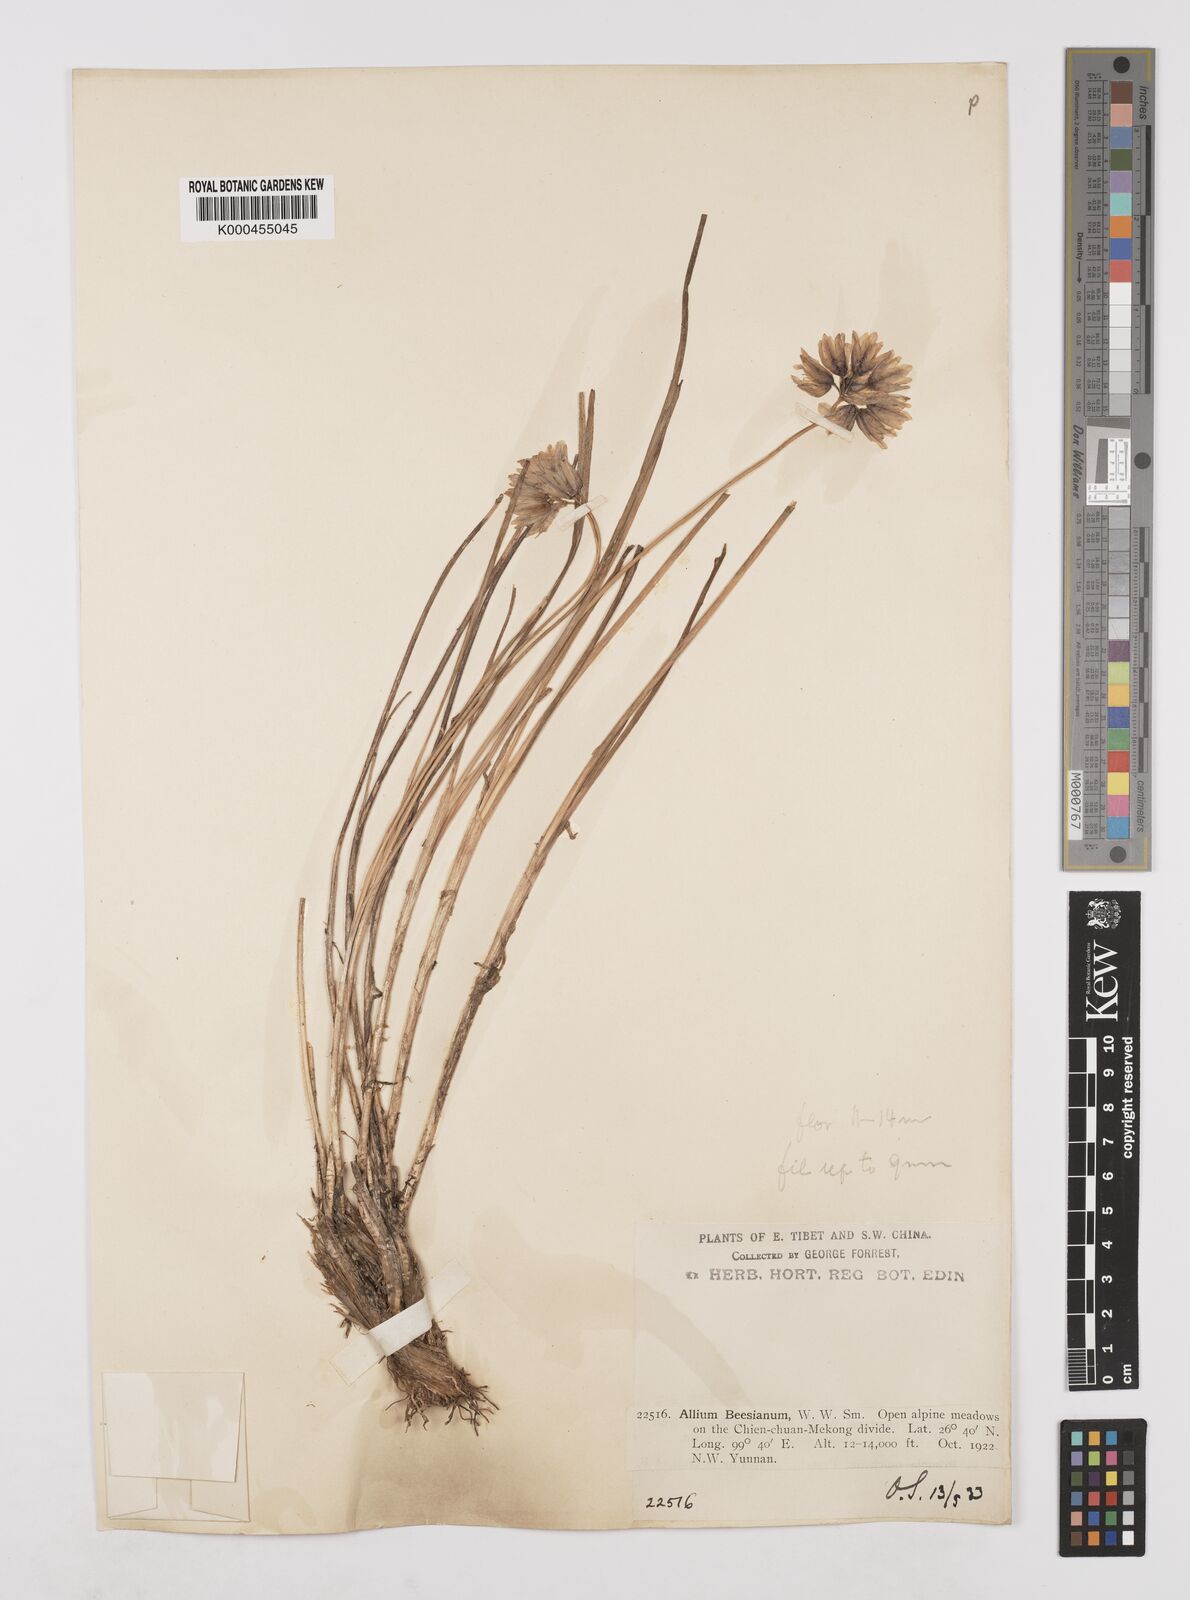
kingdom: Plantae
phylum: Tracheophyta
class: Liliopsida
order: Asparagales
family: Amaryllidaceae
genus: Allium
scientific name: Allium beesianum
